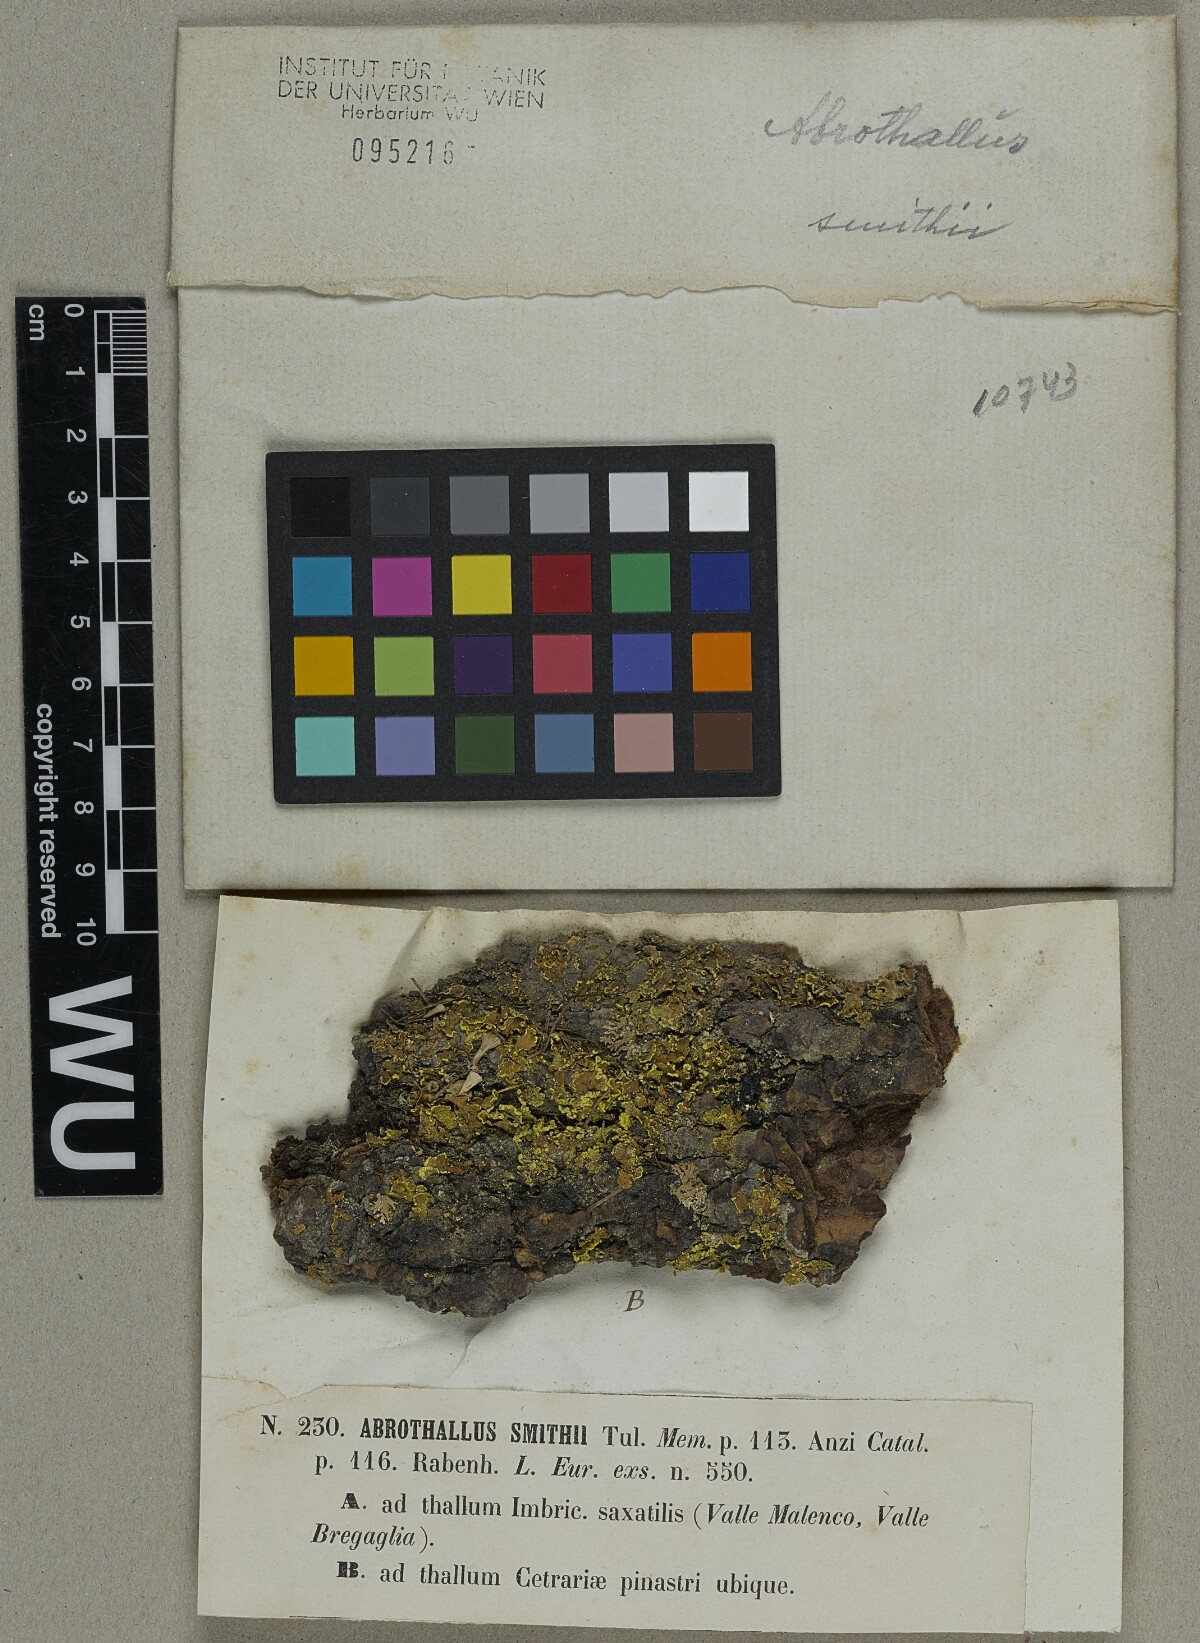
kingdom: Fungi
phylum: Ascomycota
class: Dothideomycetes
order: Abrothallales
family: Abrothallaceae
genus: Abrothallus
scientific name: Abrothallus parmeliarum
